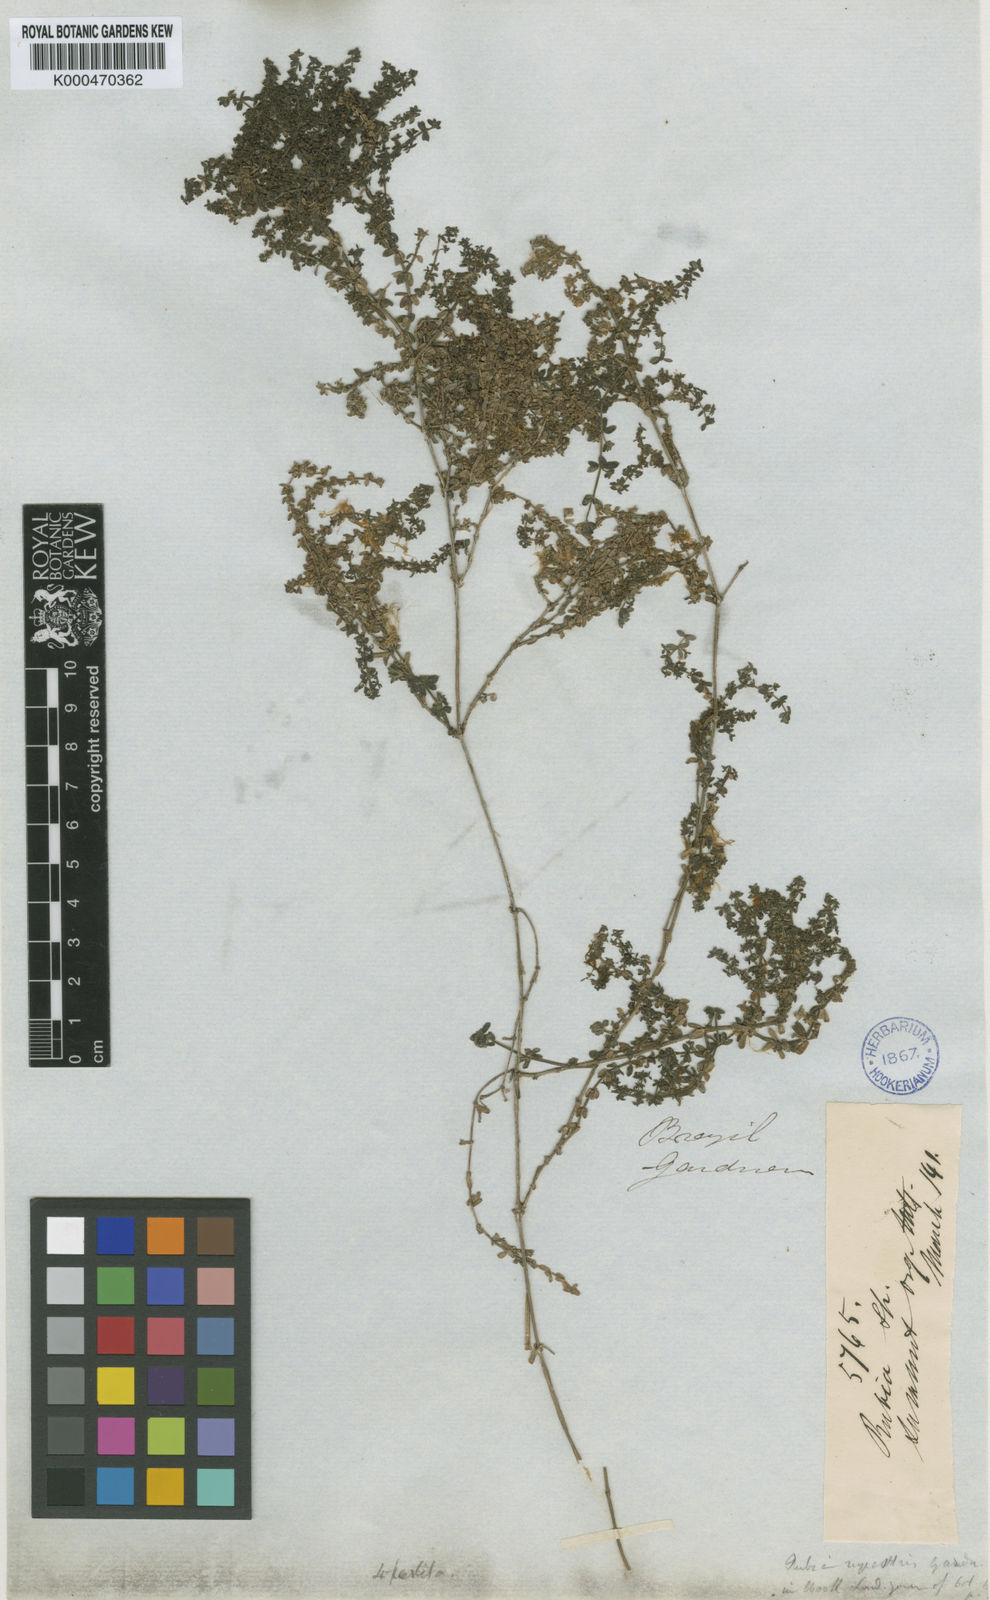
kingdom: Plantae
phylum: Tracheophyta
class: Magnoliopsida
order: Gentianales
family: Rubiaceae
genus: Galium
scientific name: Galium hypocarpium
